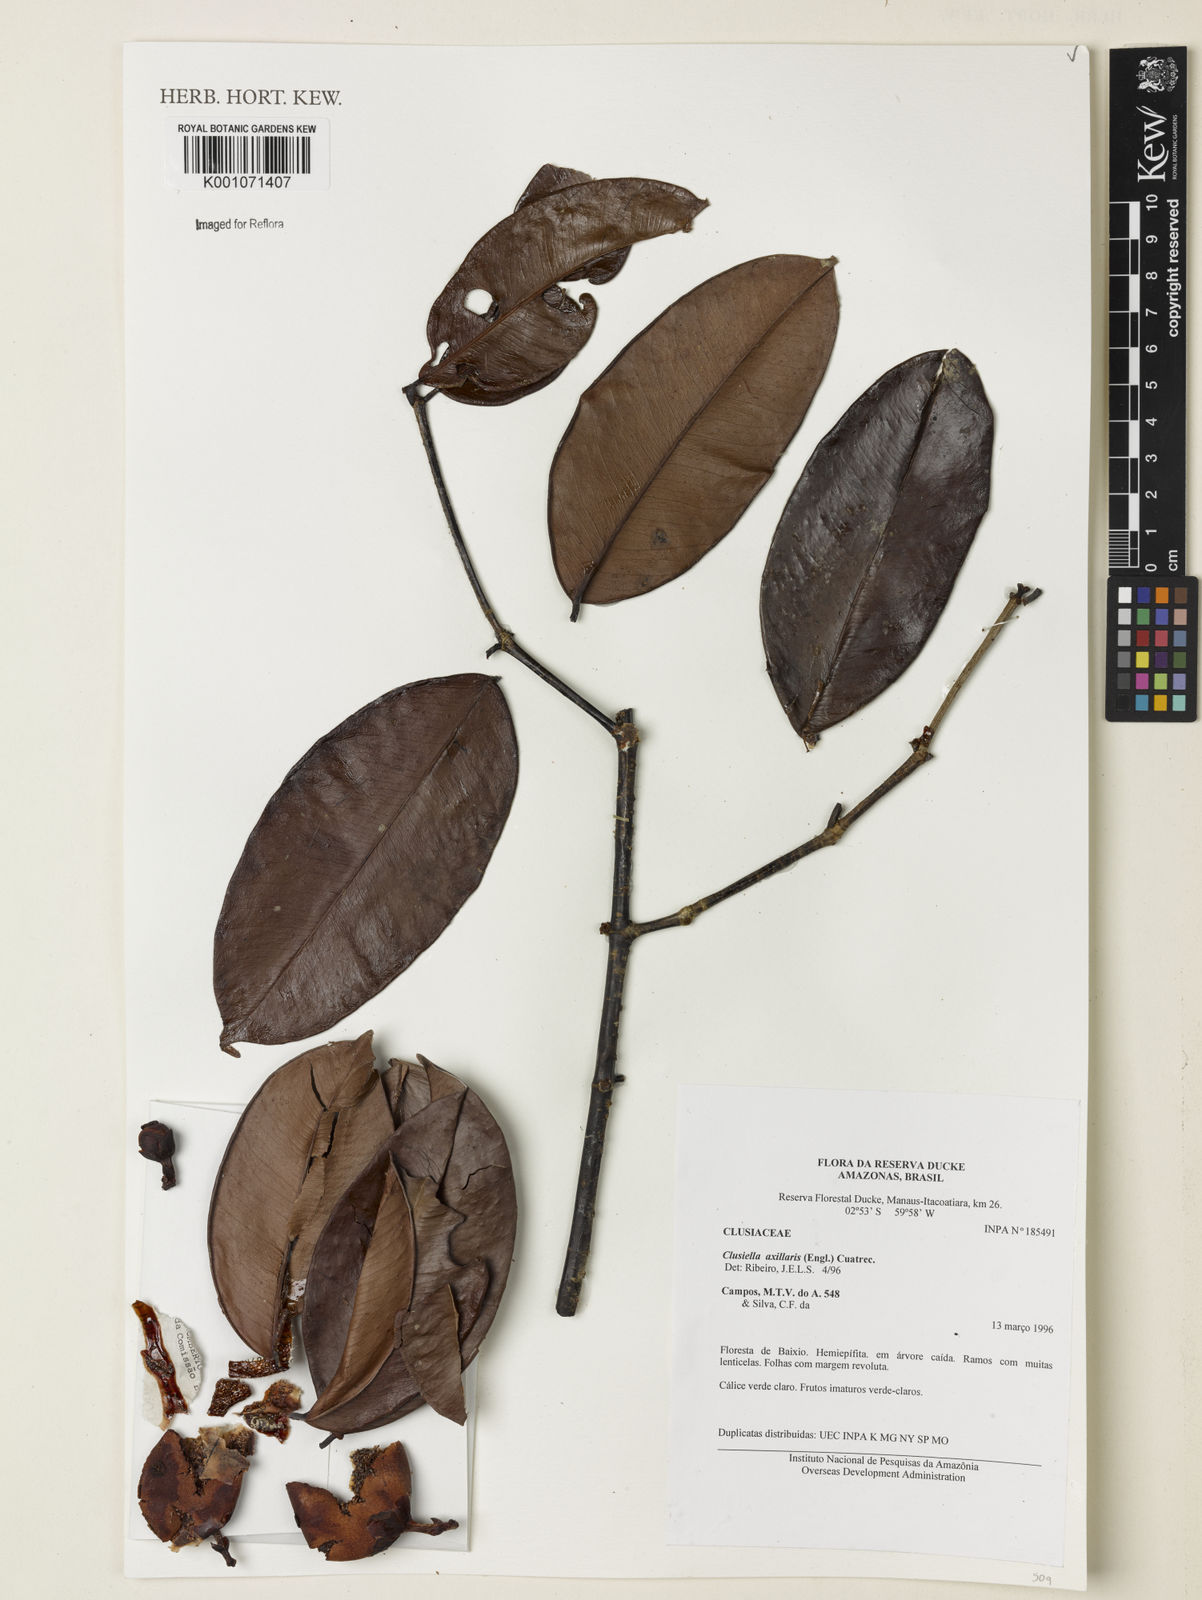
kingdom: Plantae
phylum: Tracheophyta
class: Magnoliopsida
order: Malpighiales
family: Calophyllaceae
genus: Clusiella
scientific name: Clusiella axillaris
